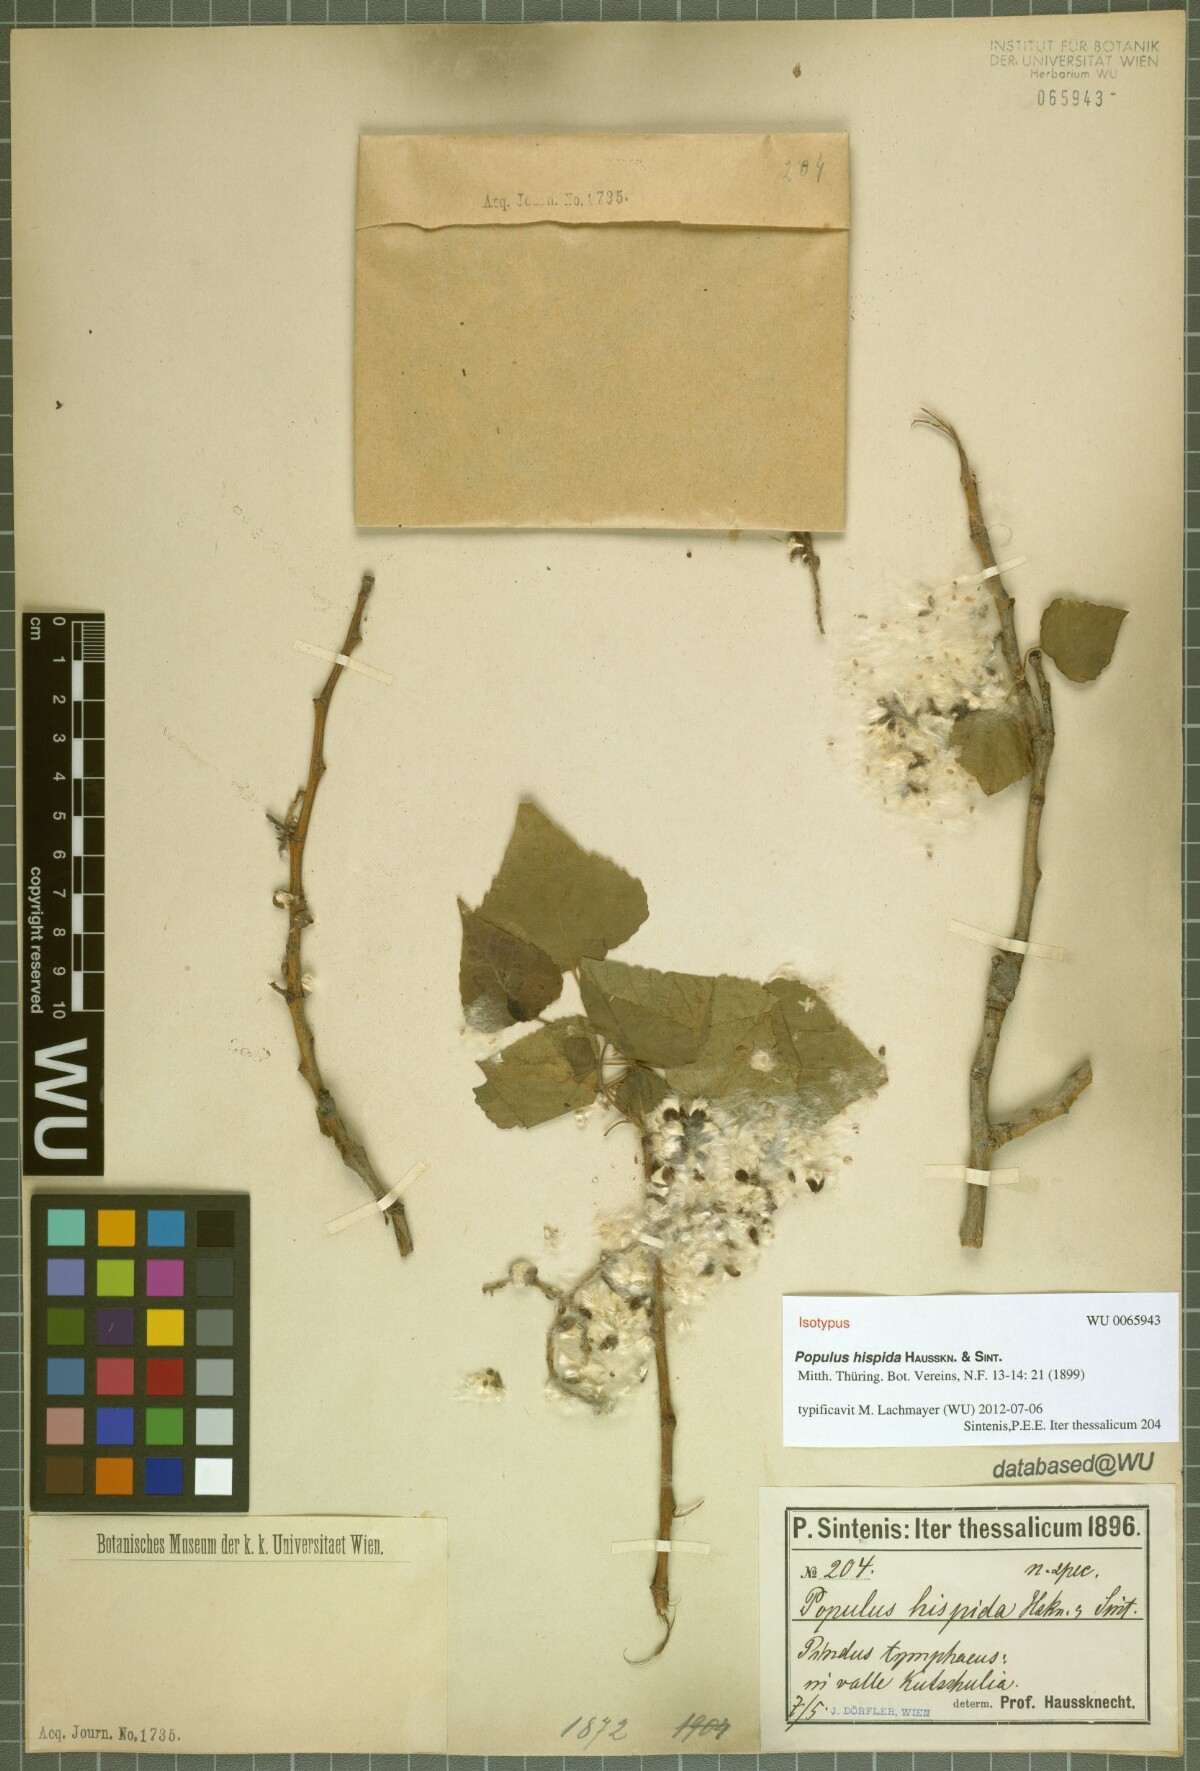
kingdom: Plantae
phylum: Tracheophyta
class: Magnoliopsida
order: Malpighiales
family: Salicaceae
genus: Populus
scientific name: Populus tremuloides
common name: Quaking aspen
